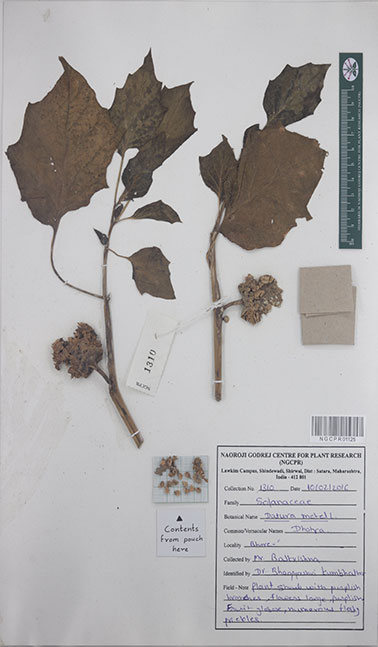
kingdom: Plantae
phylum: Tracheophyta
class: Magnoliopsida
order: Solanales
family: Solanaceae
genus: Datura
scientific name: Datura metel
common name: Jimsonweed
